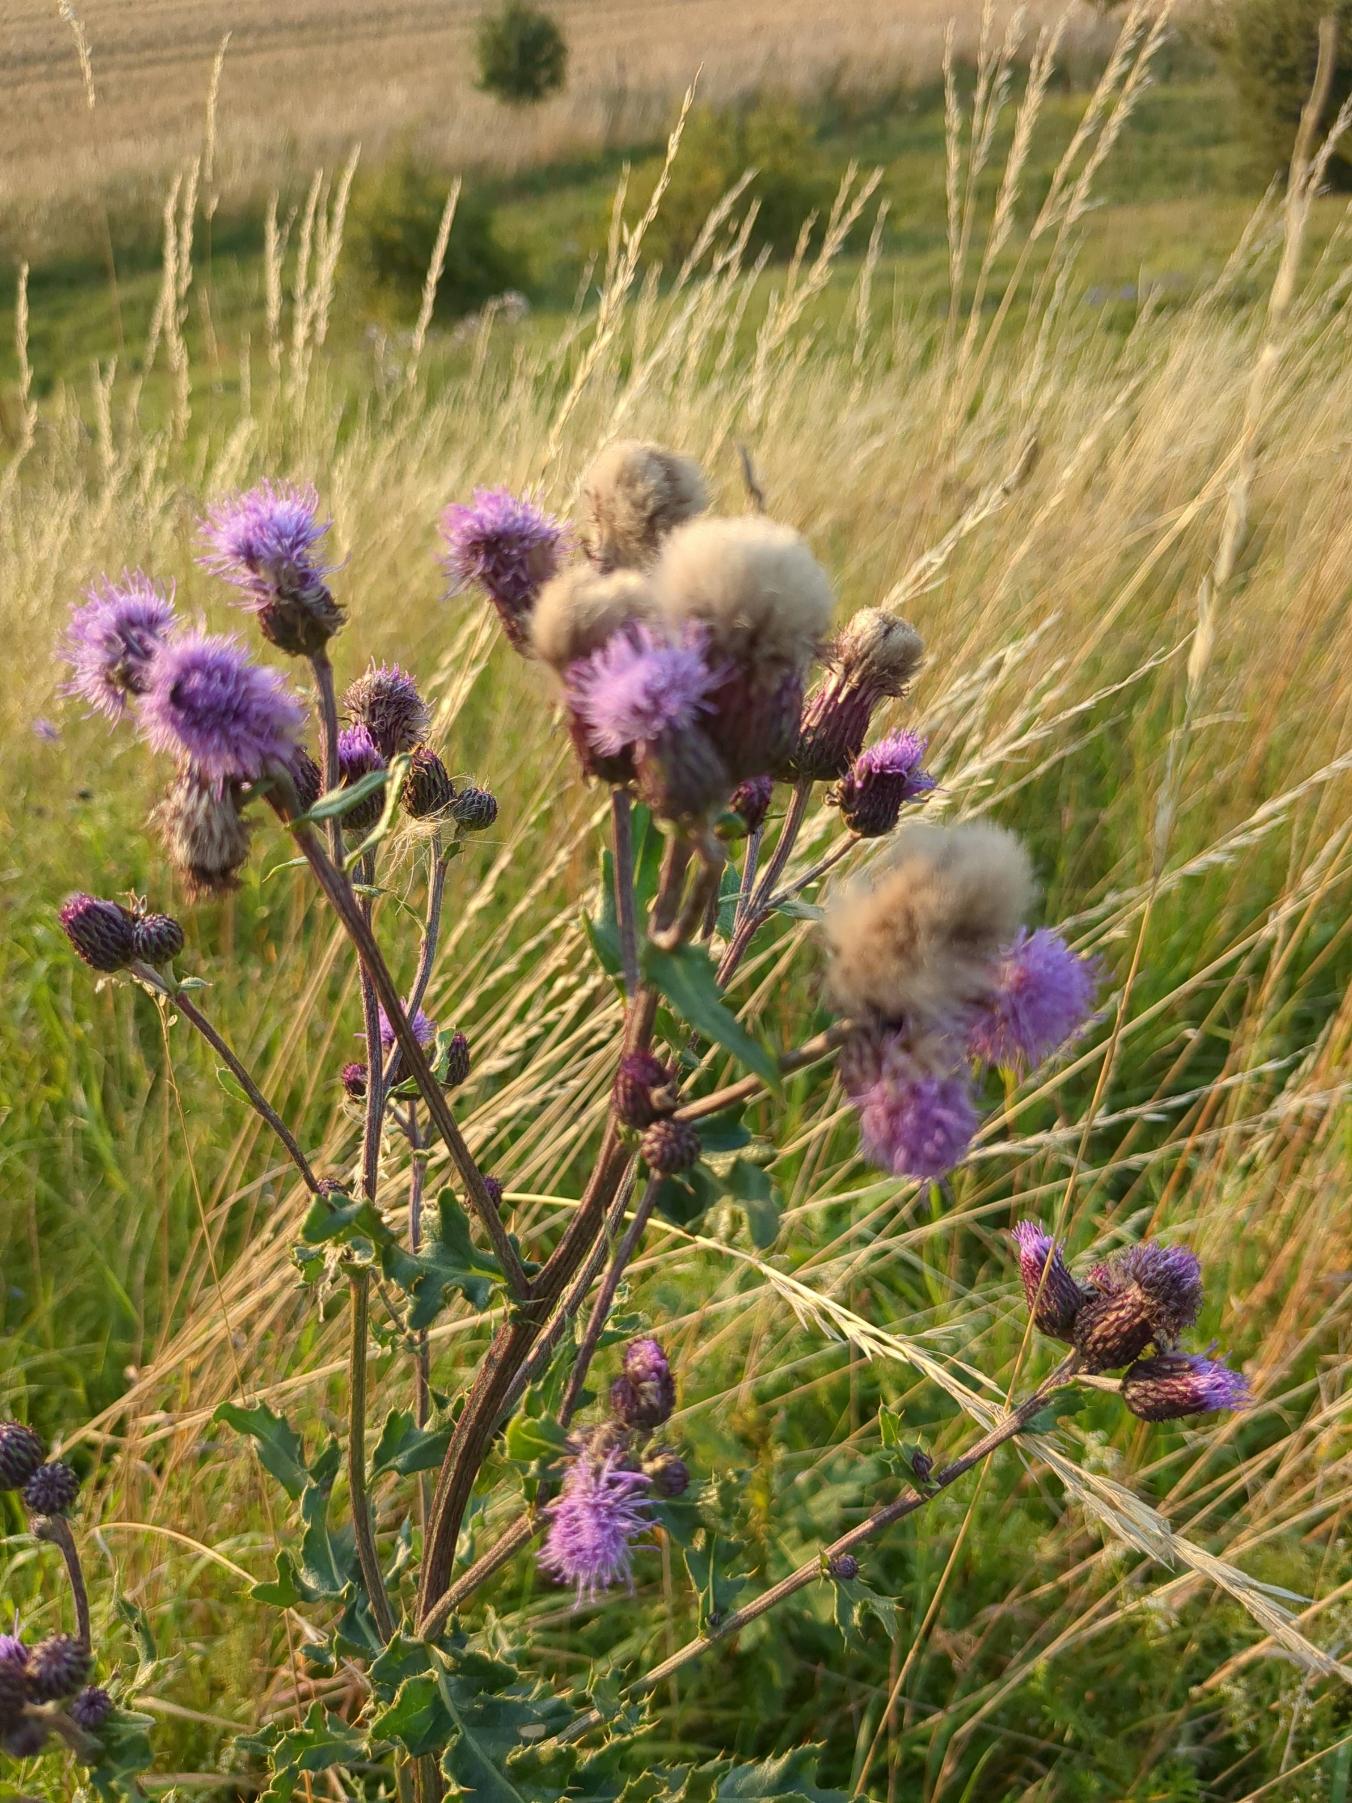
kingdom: Plantae
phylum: Tracheophyta
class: Magnoliopsida
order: Asterales
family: Asteraceae
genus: Cirsium
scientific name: Cirsium arvense
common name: Ager-tidsel
